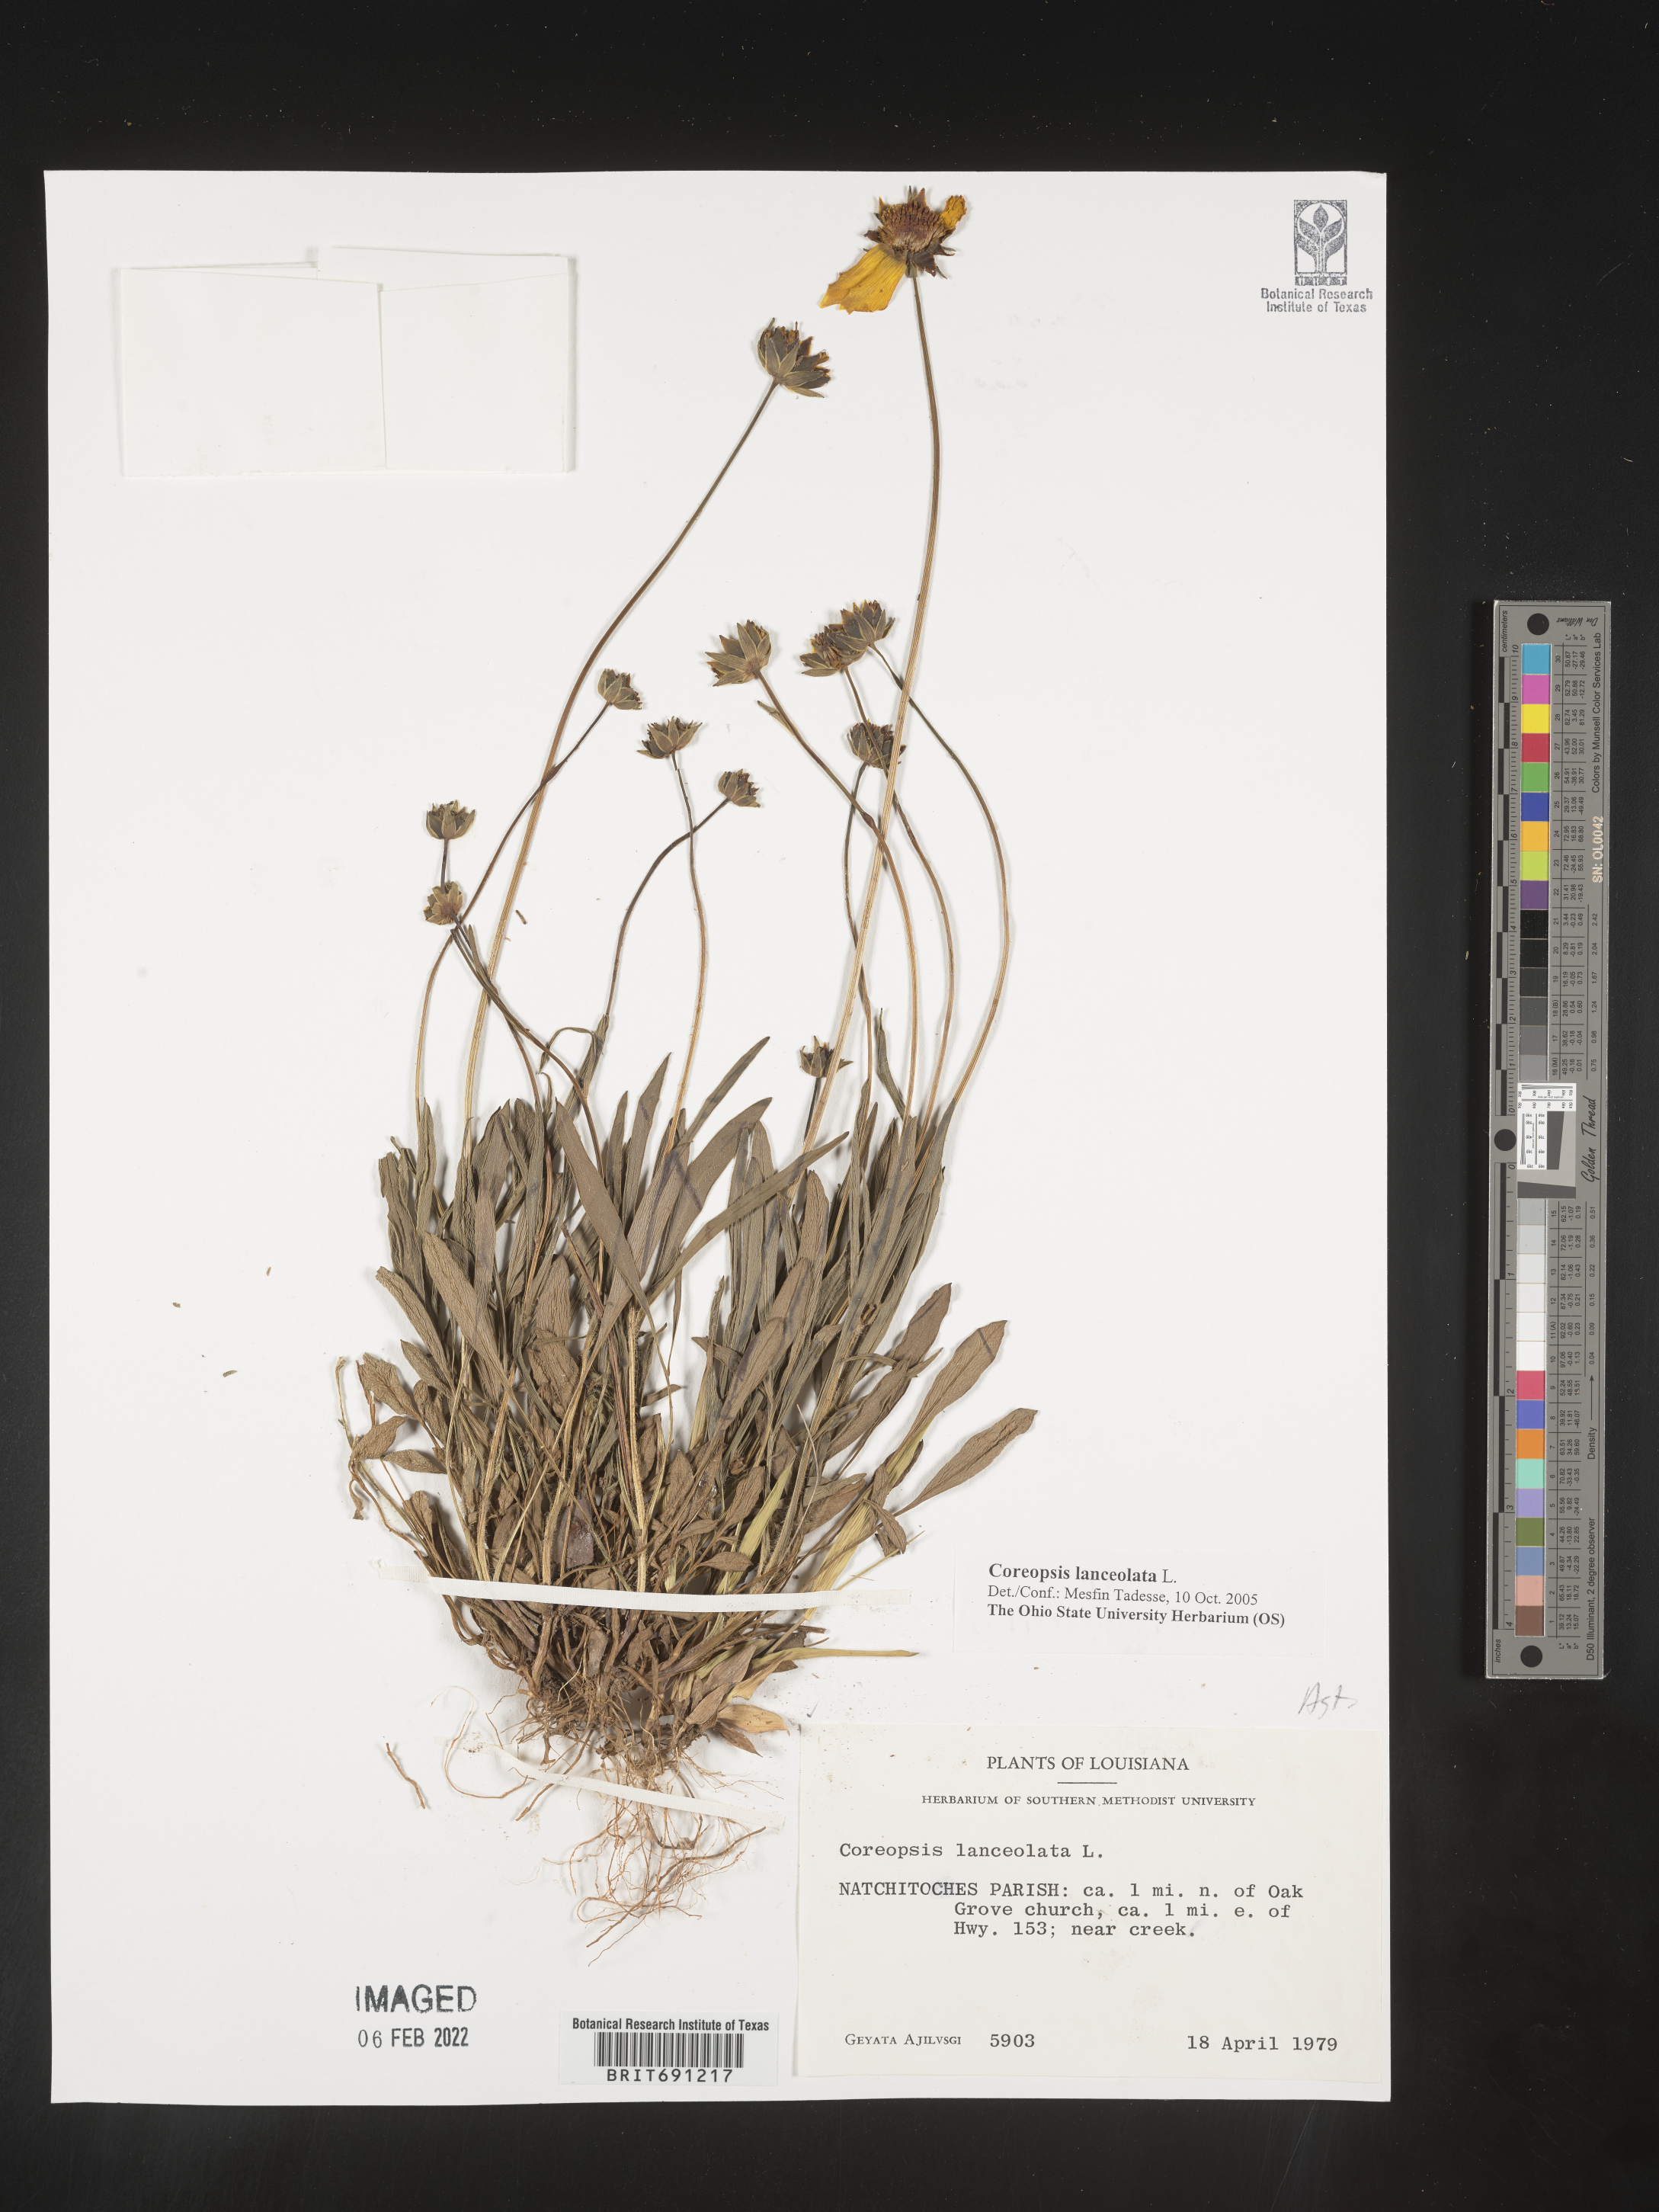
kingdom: Plantae
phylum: Tracheophyta
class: Magnoliopsida
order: Asterales
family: Asteraceae
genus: Coreopsis
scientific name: Coreopsis lanceolata
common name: Garden coreopsis
